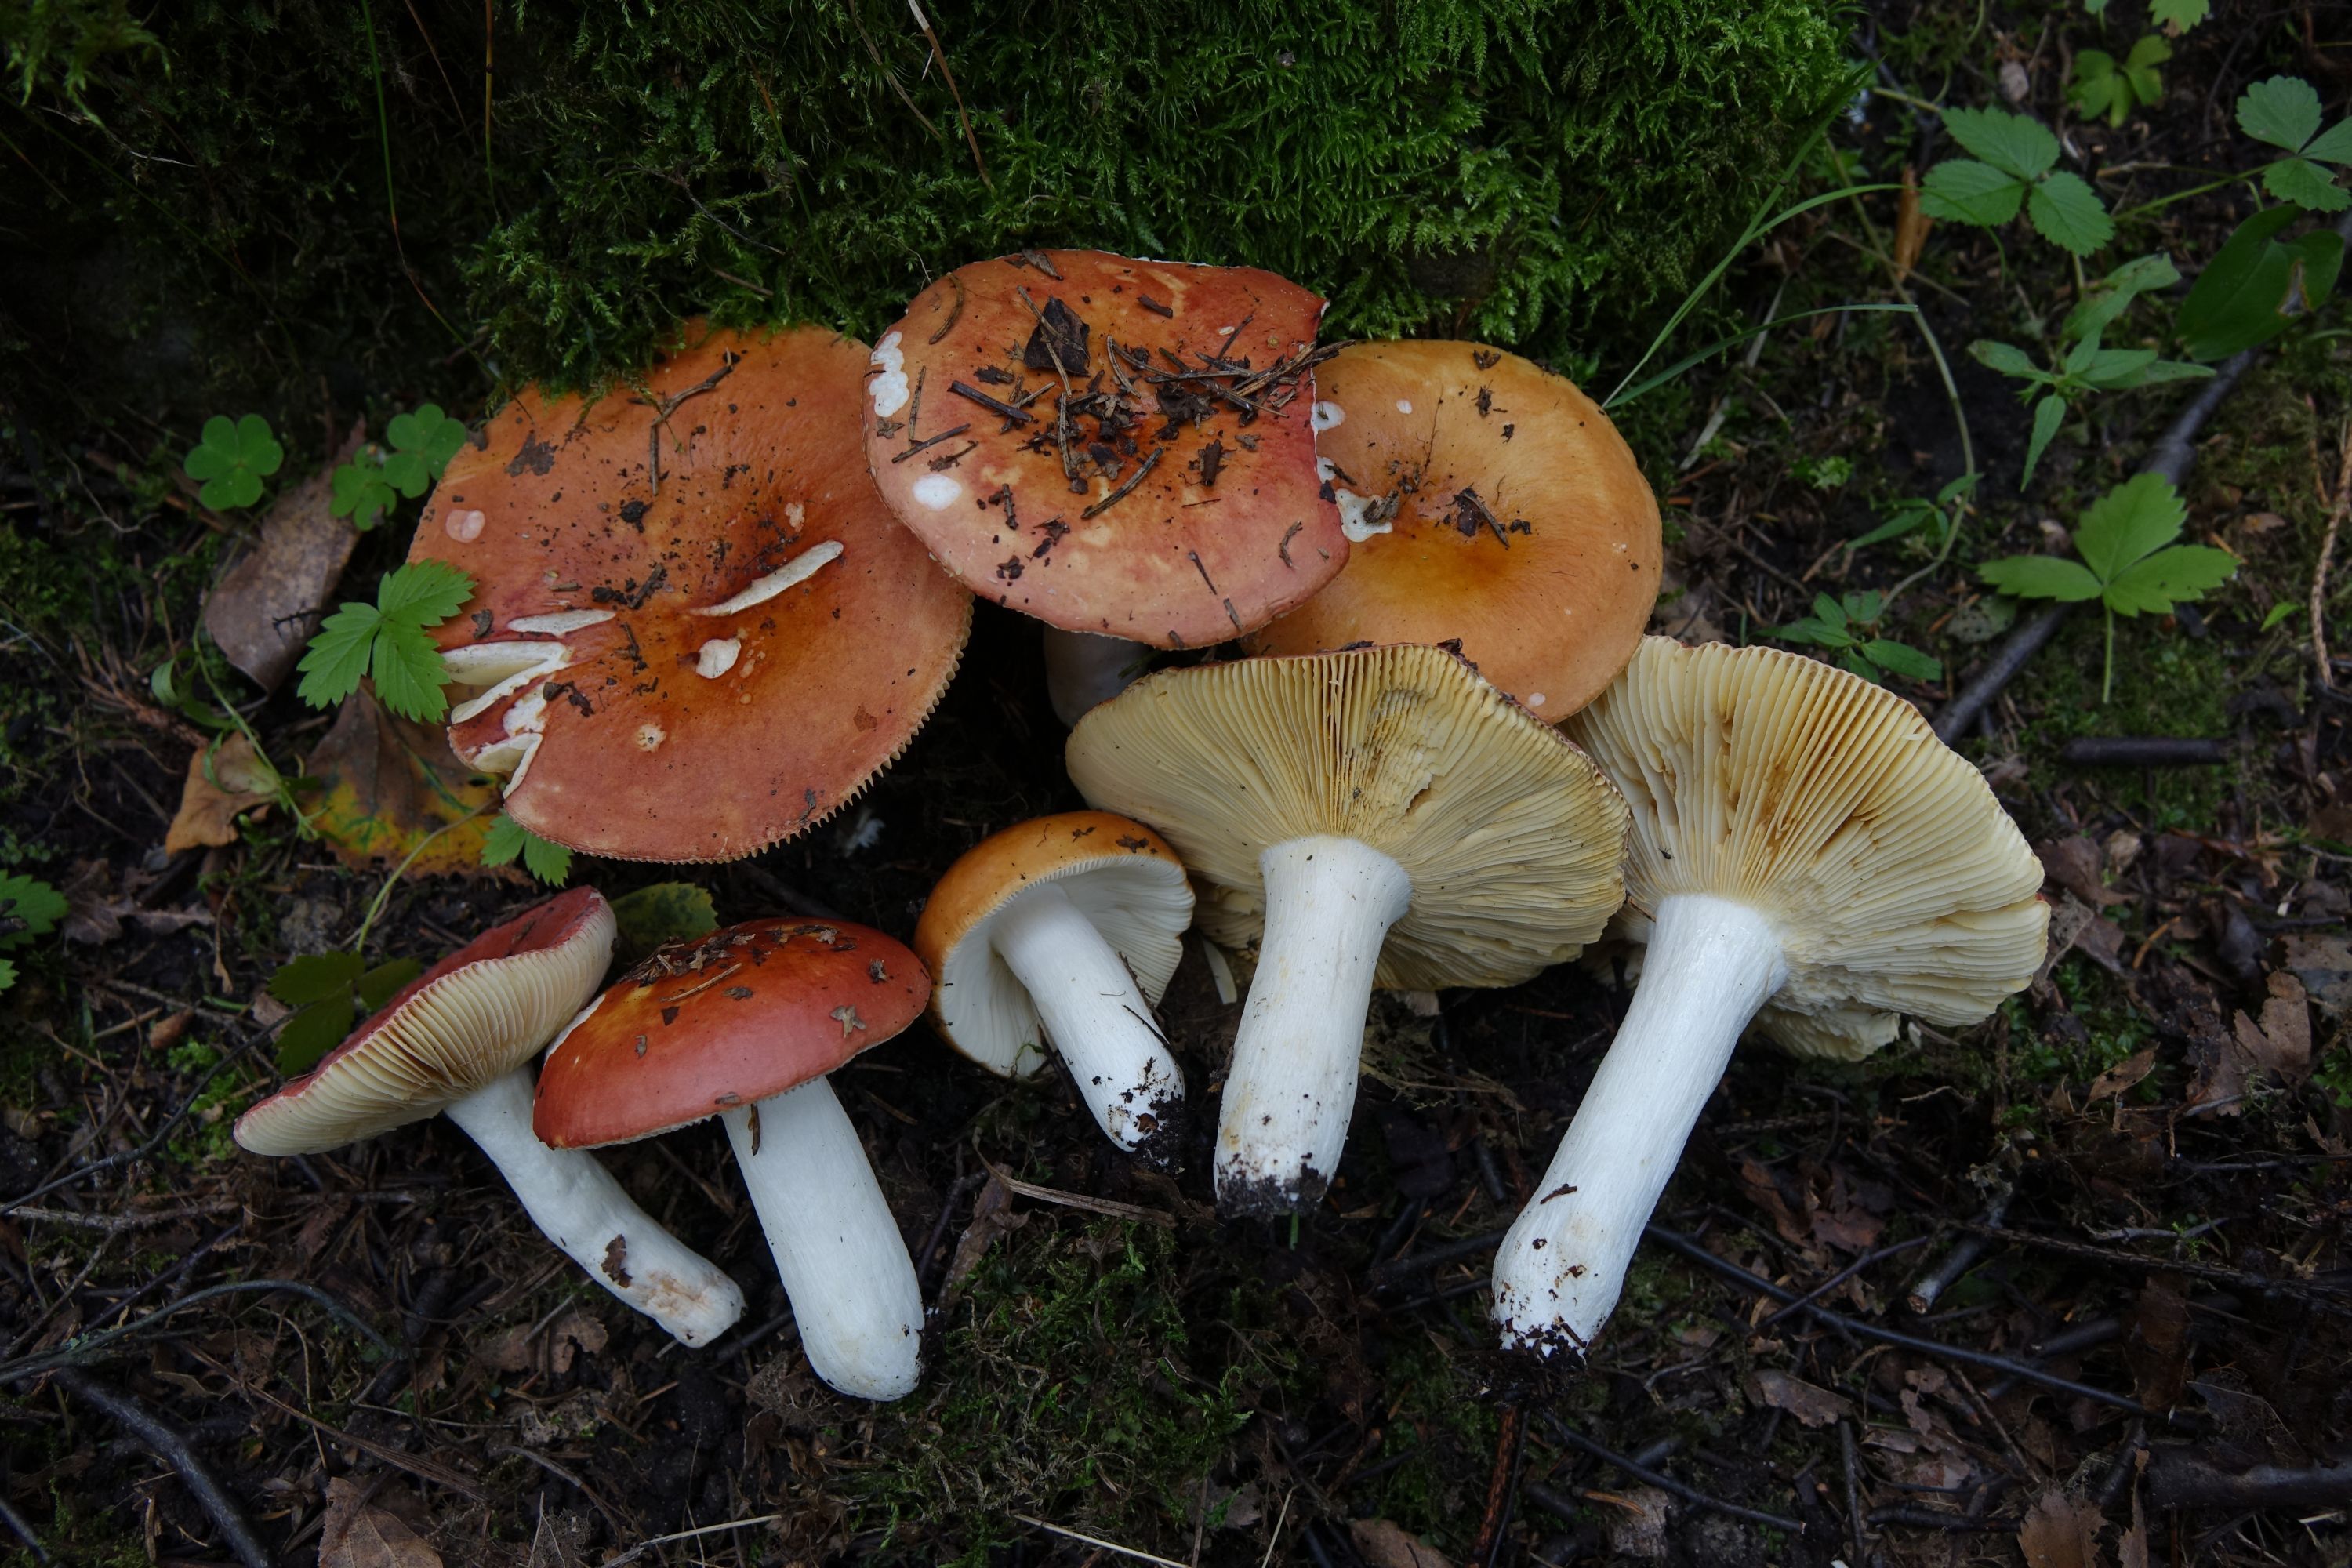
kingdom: Fungi
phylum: Basidiomycota
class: Agaricomycetes
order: Russulales
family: Russulaceae
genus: Russula
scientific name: Russula intermedia
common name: Intermediate brittlegill
